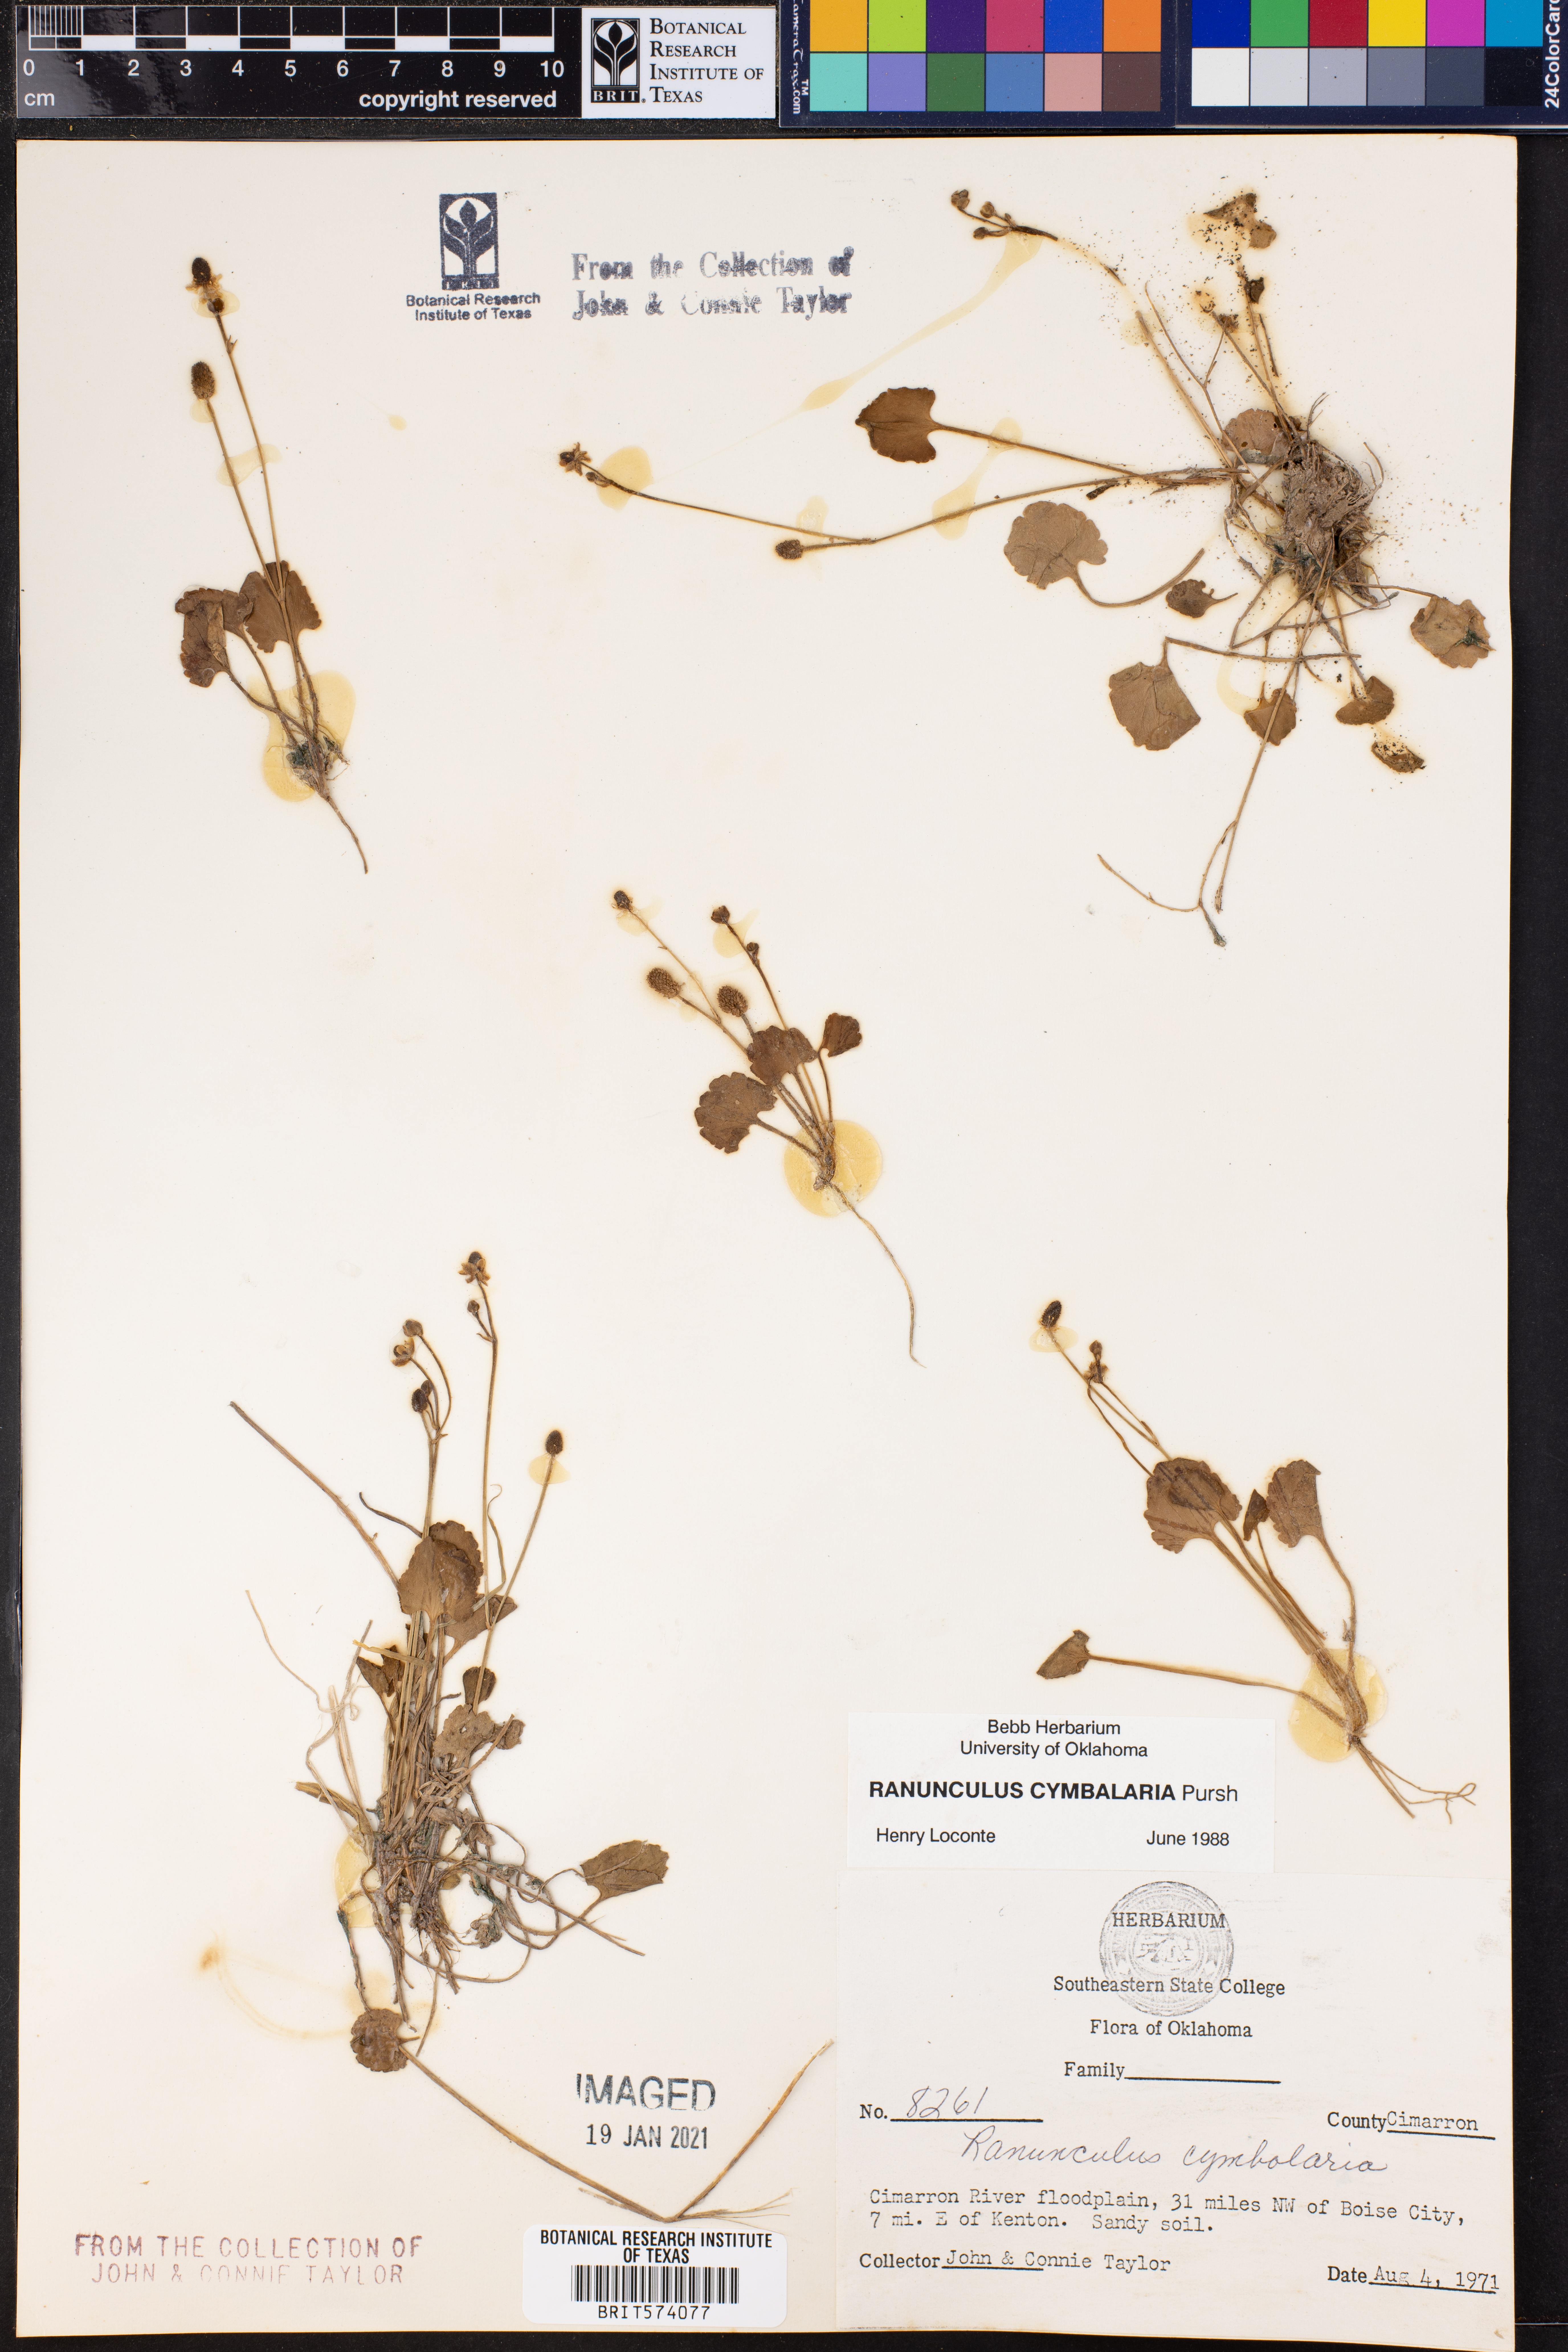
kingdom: Plantae
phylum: Tracheophyta
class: Magnoliopsida
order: Ranunculales
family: Ranunculaceae
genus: Halerpestes
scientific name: Halerpestes cymbalaria
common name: Seaside crowfoot
